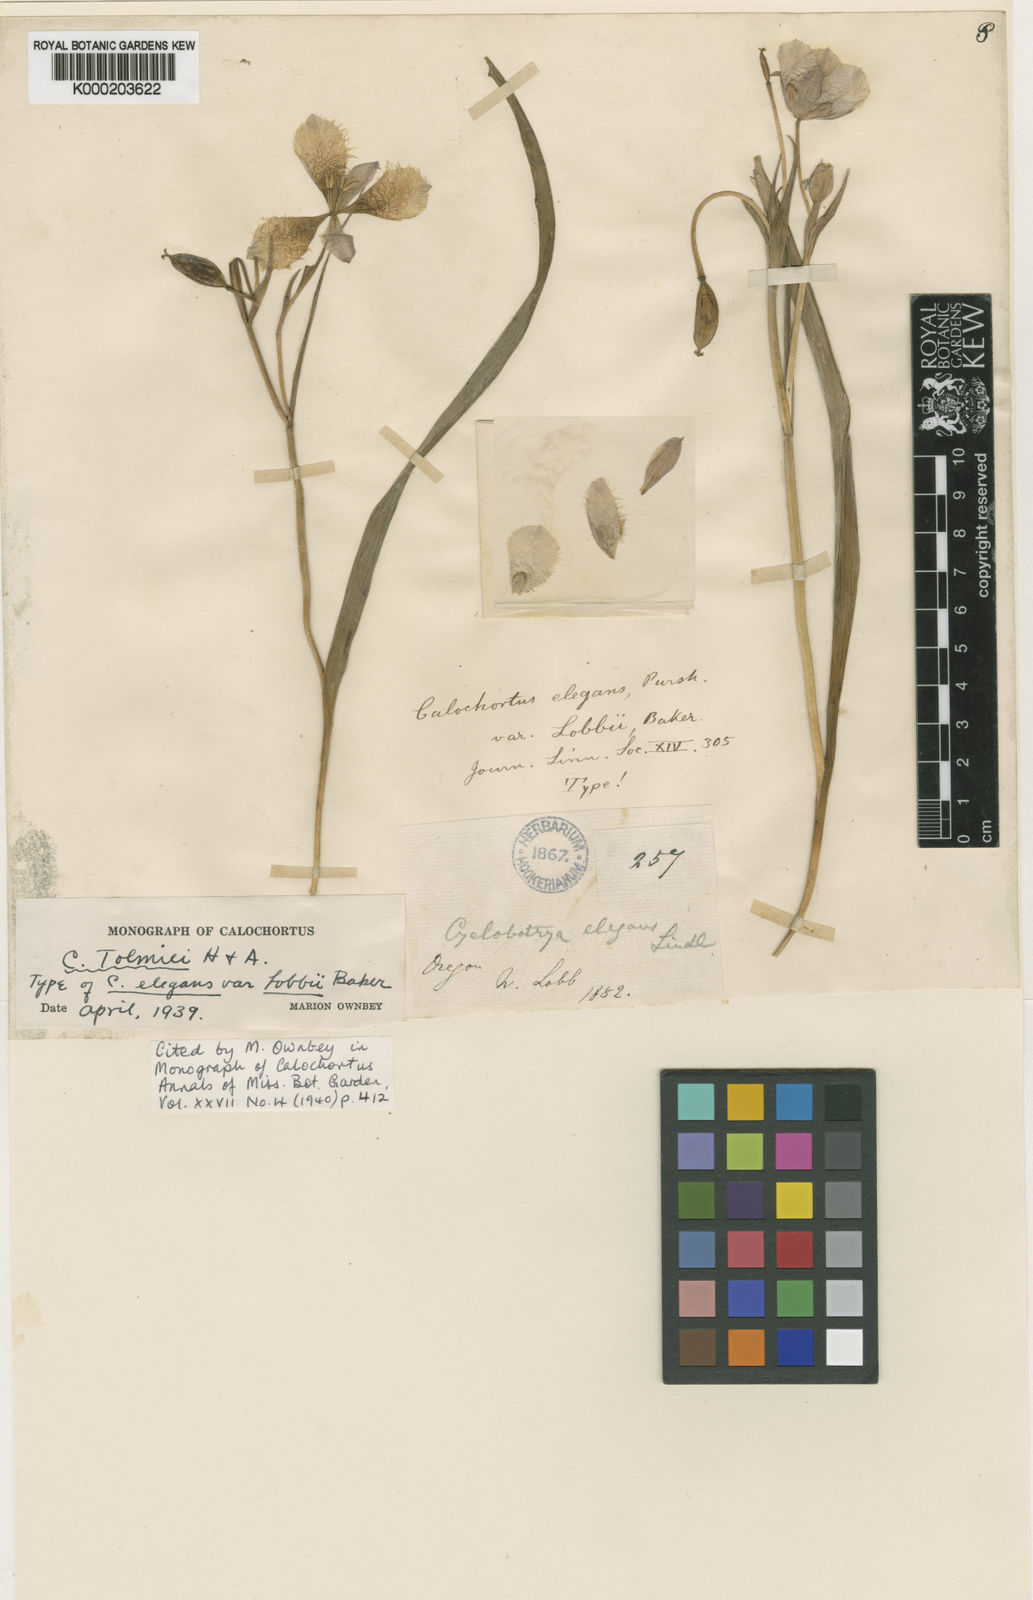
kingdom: Plantae
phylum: Tracheophyta
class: Liliopsida
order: Liliales
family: Liliaceae
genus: Calochortus
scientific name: Calochortus tolmiei
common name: Pussy-ears
